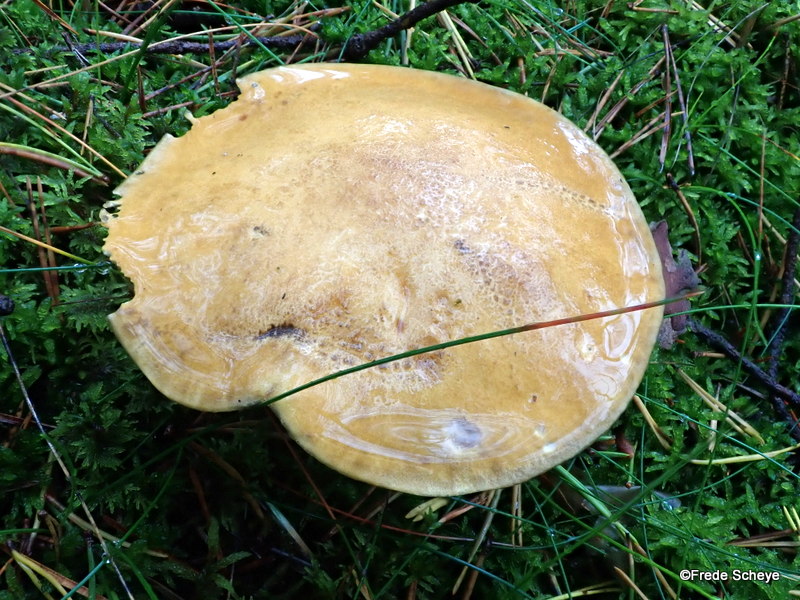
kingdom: Fungi
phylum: Basidiomycota
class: Agaricomycetes
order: Boletales
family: Suillaceae
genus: Suillus
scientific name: Suillus variegatus
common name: broget slimrørhat
